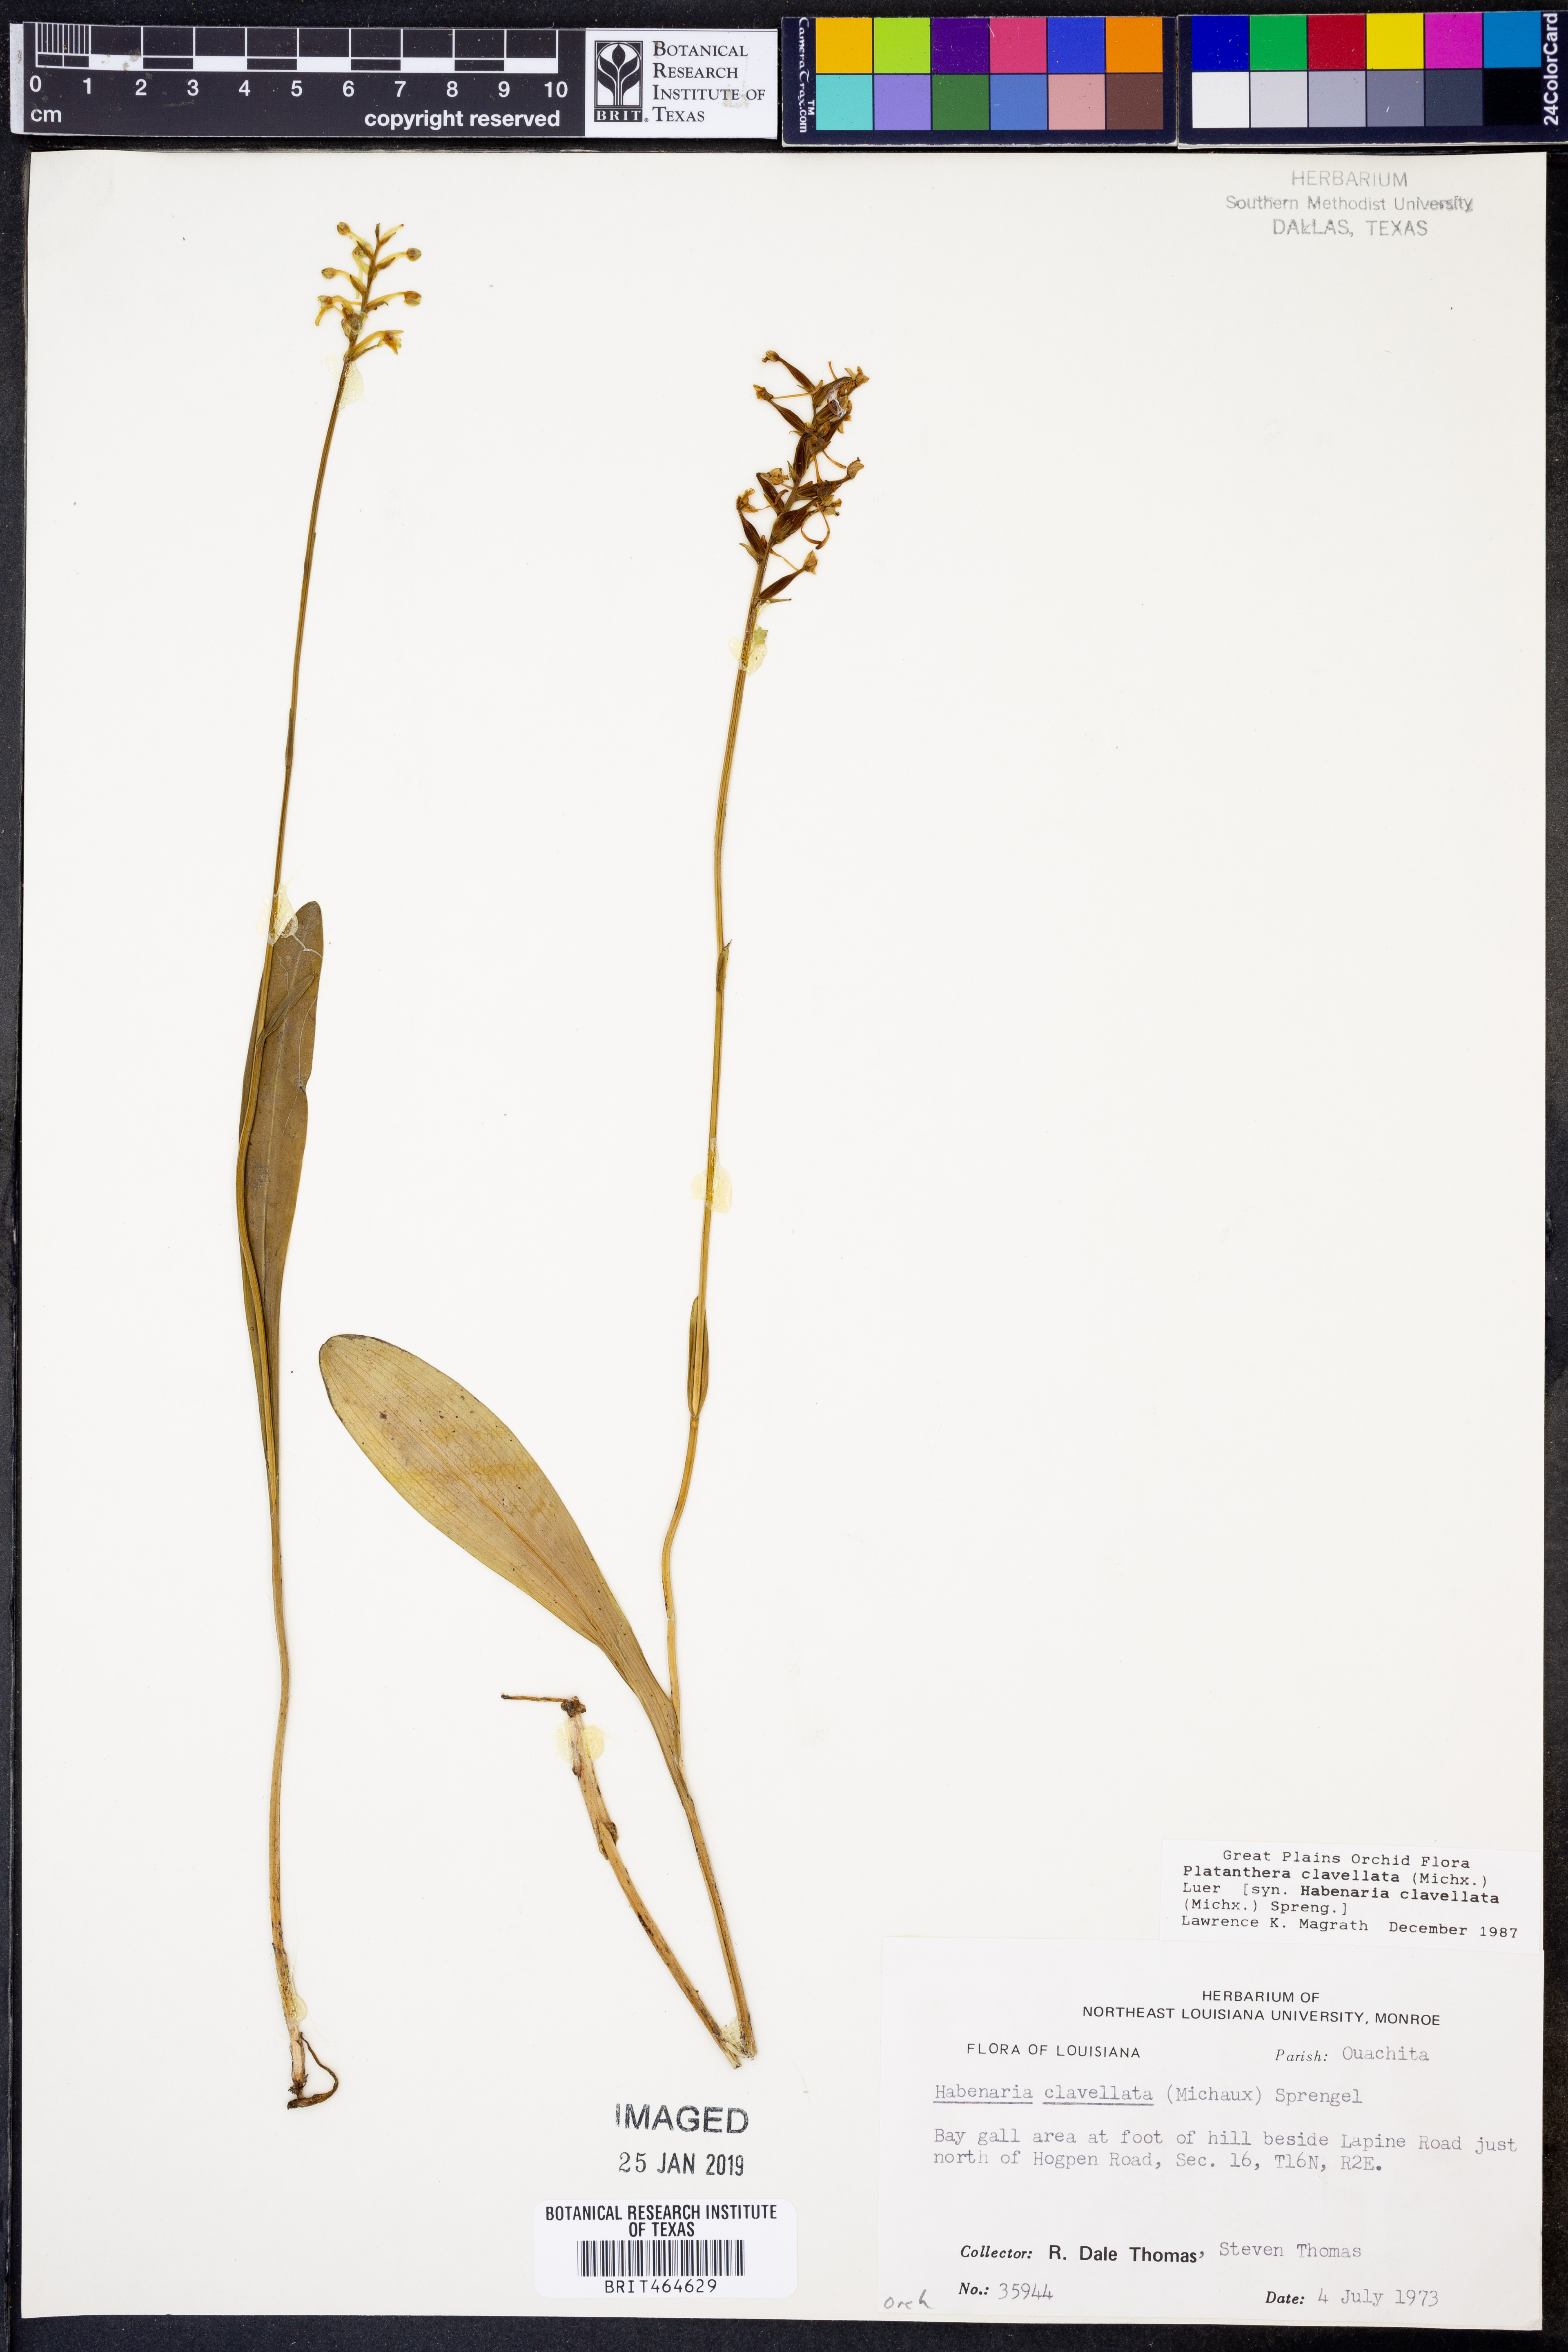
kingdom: Plantae
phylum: Tracheophyta
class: Liliopsida
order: Asparagales
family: Orchidaceae
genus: Platanthera
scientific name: Platanthera clavellata
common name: Club-spur orchid
